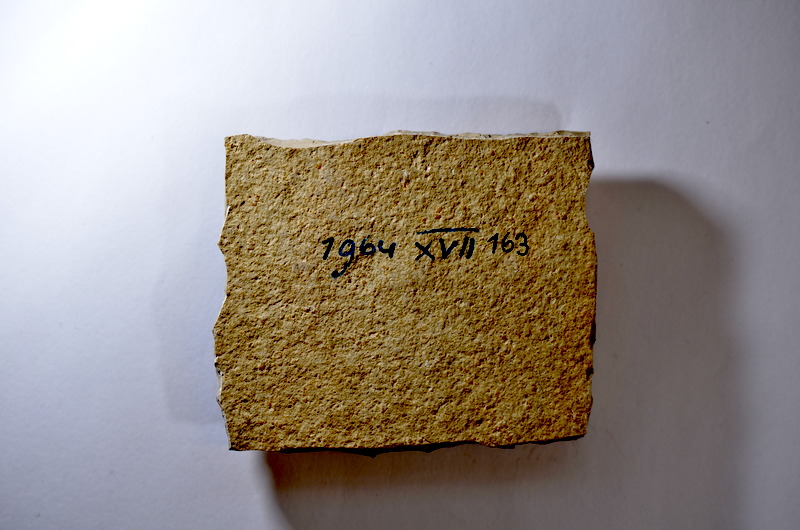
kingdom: Animalia
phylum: Chordata
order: Salmoniformes
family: Orthogonikleithridae
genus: Leptolepides
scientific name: Leptolepides
